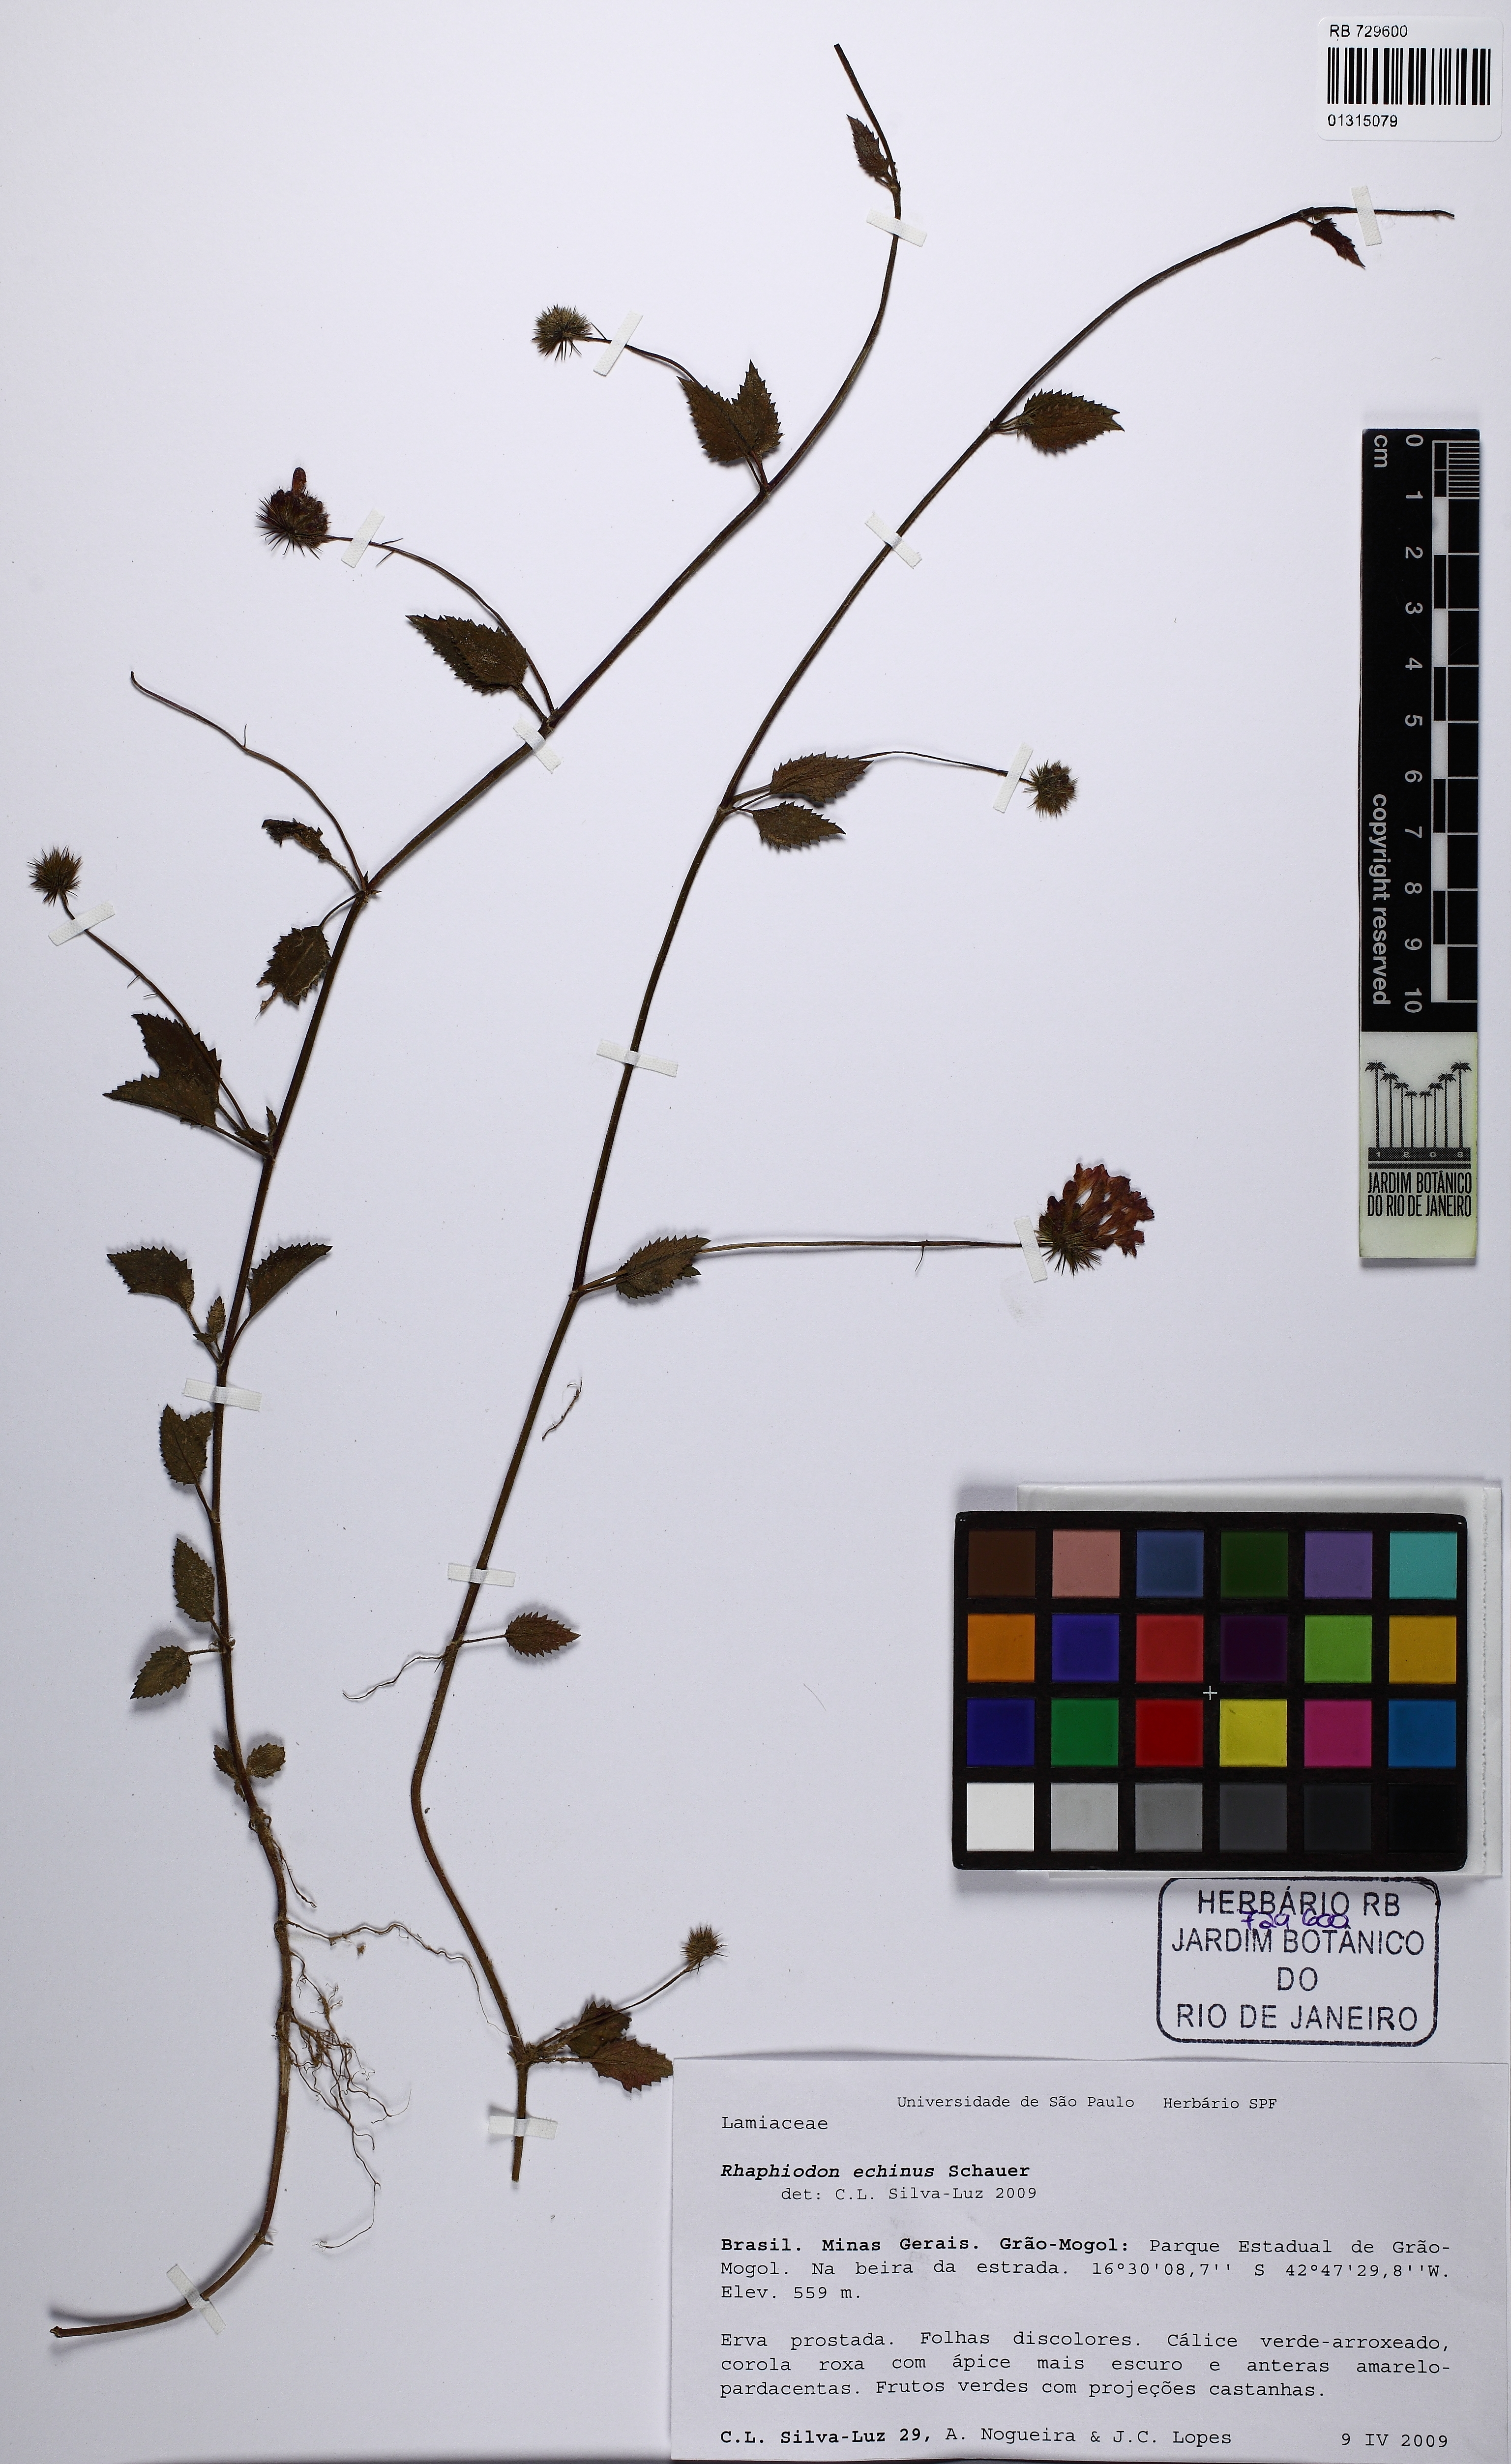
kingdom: Plantae
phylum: Tracheophyta
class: Magnoliopsida
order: Lamiales
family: Lamiaceae
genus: Rhaphiodon
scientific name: Rhaphiodon echinus
